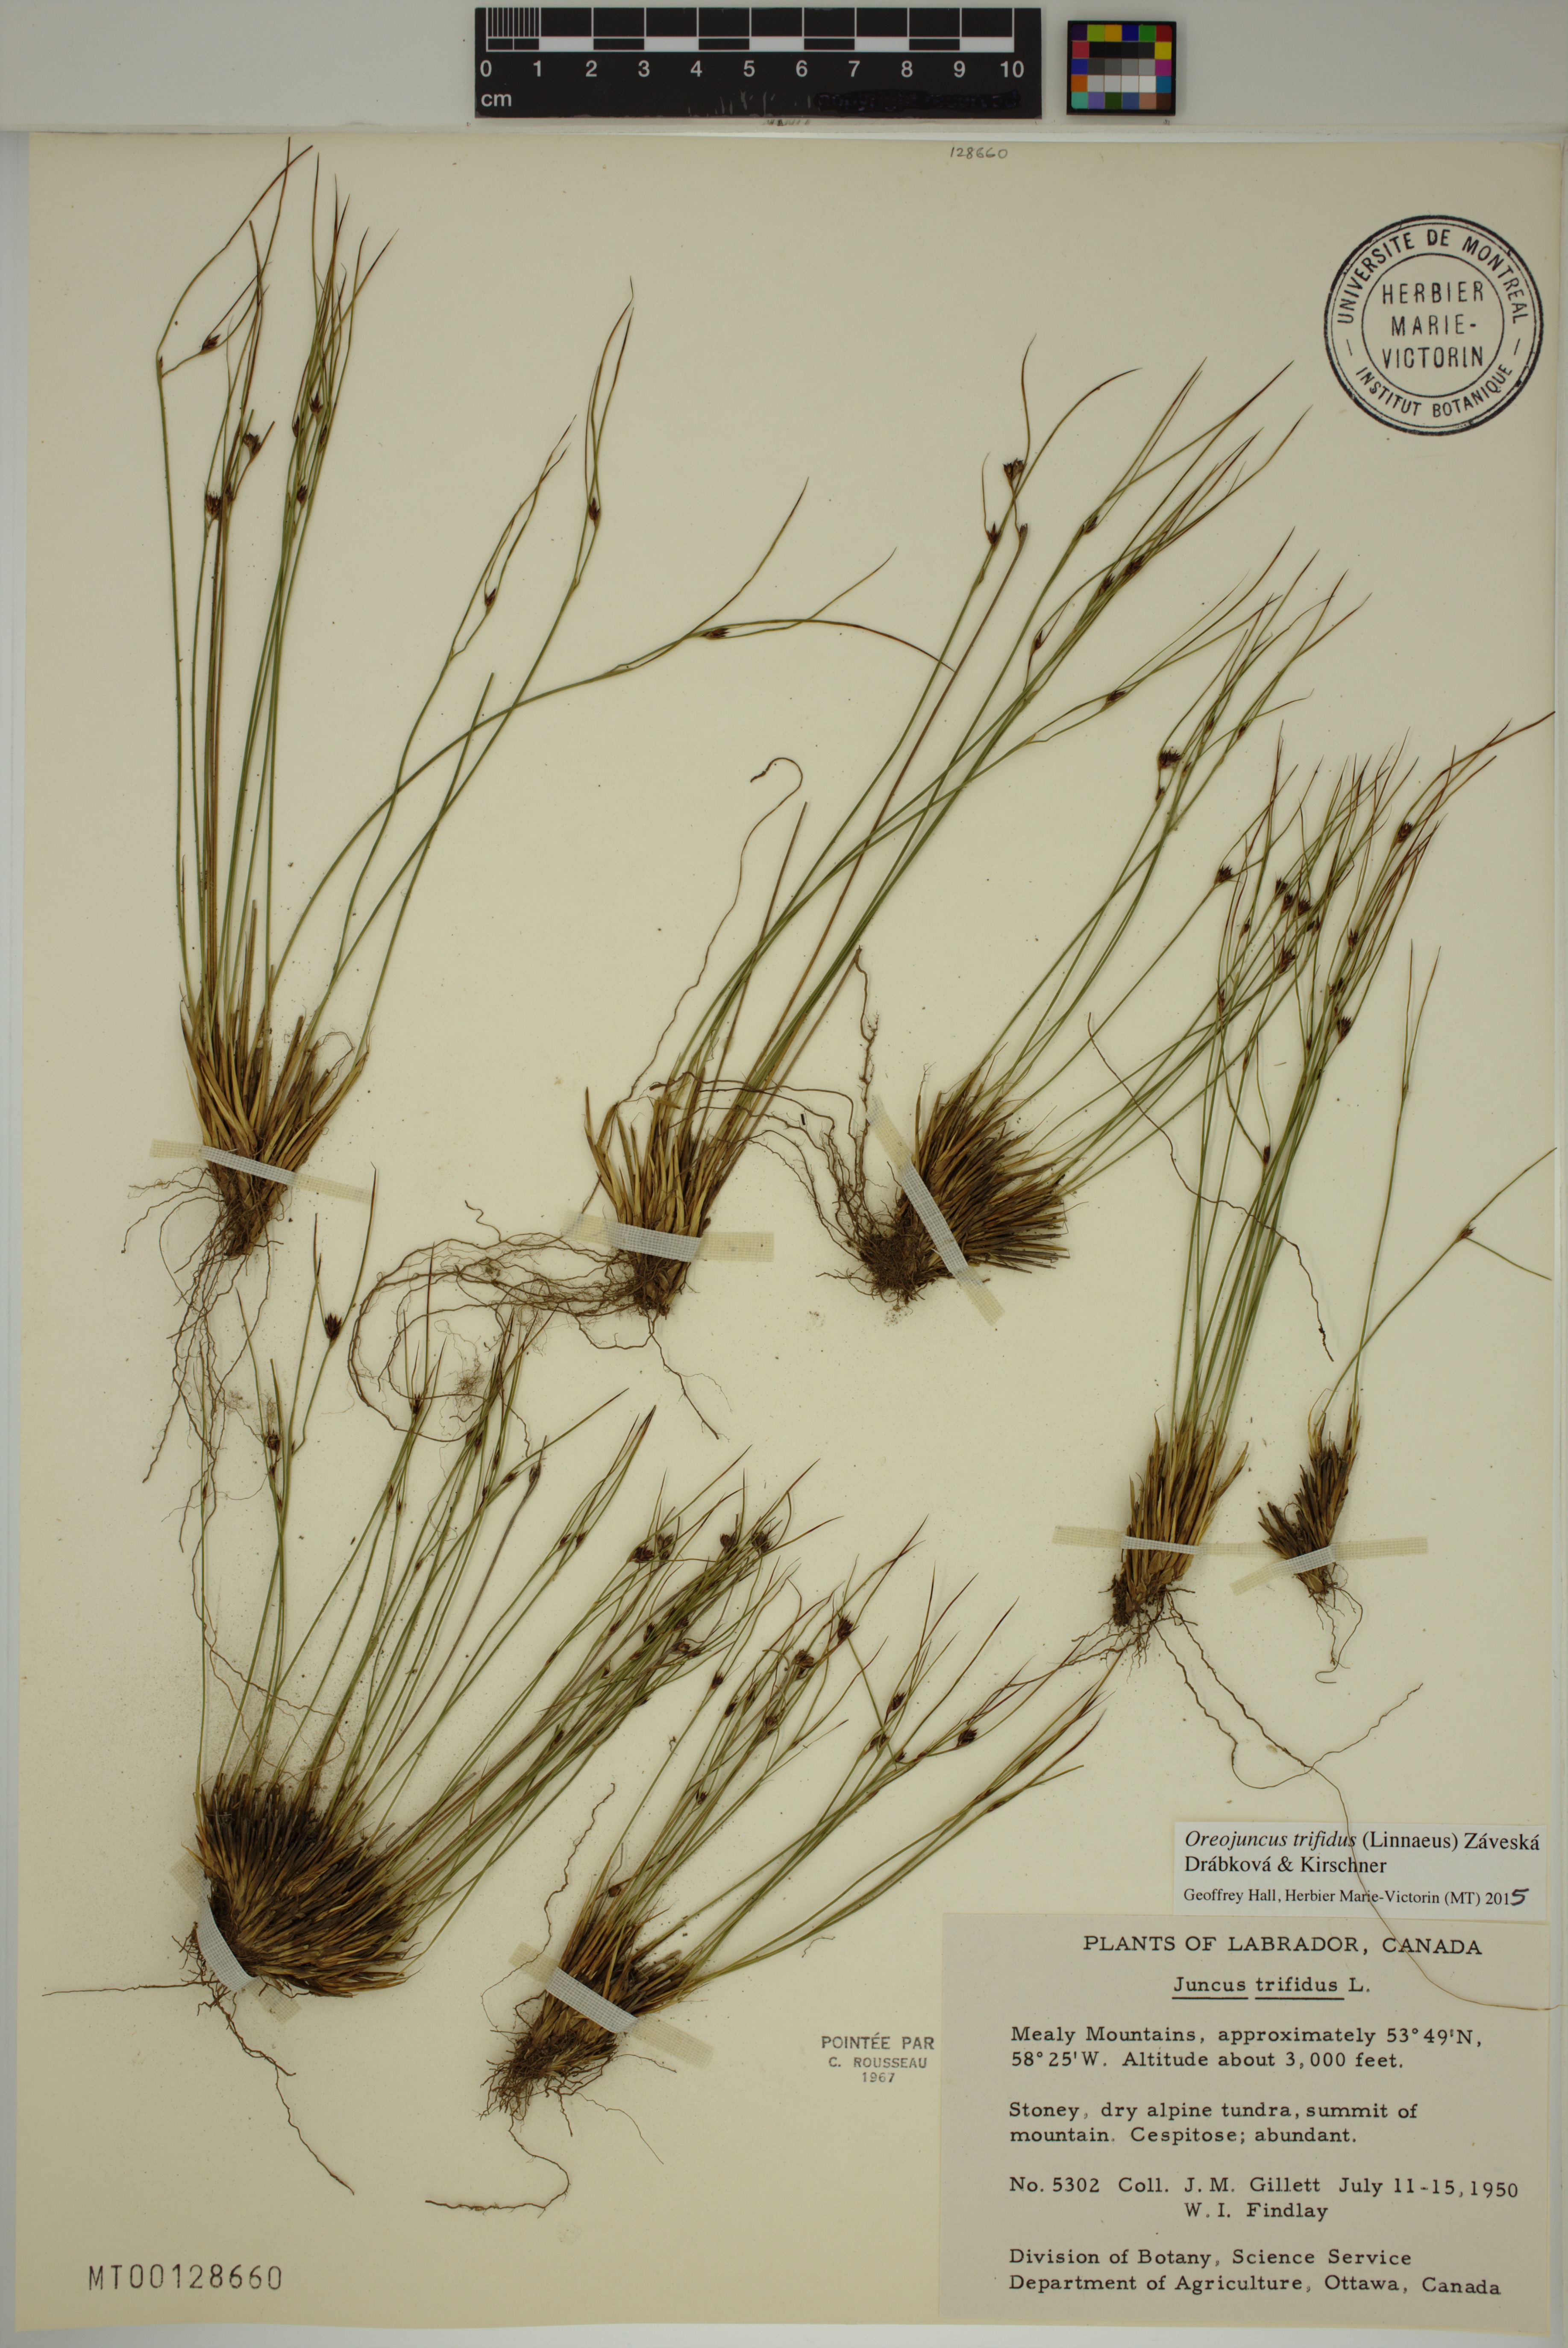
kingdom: Plantae
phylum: Tracheophyta
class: Liliopsida
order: Poales
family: Juncaceae
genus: Oreojuncus
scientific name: Oreojuncus trifidus
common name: Highland rush
